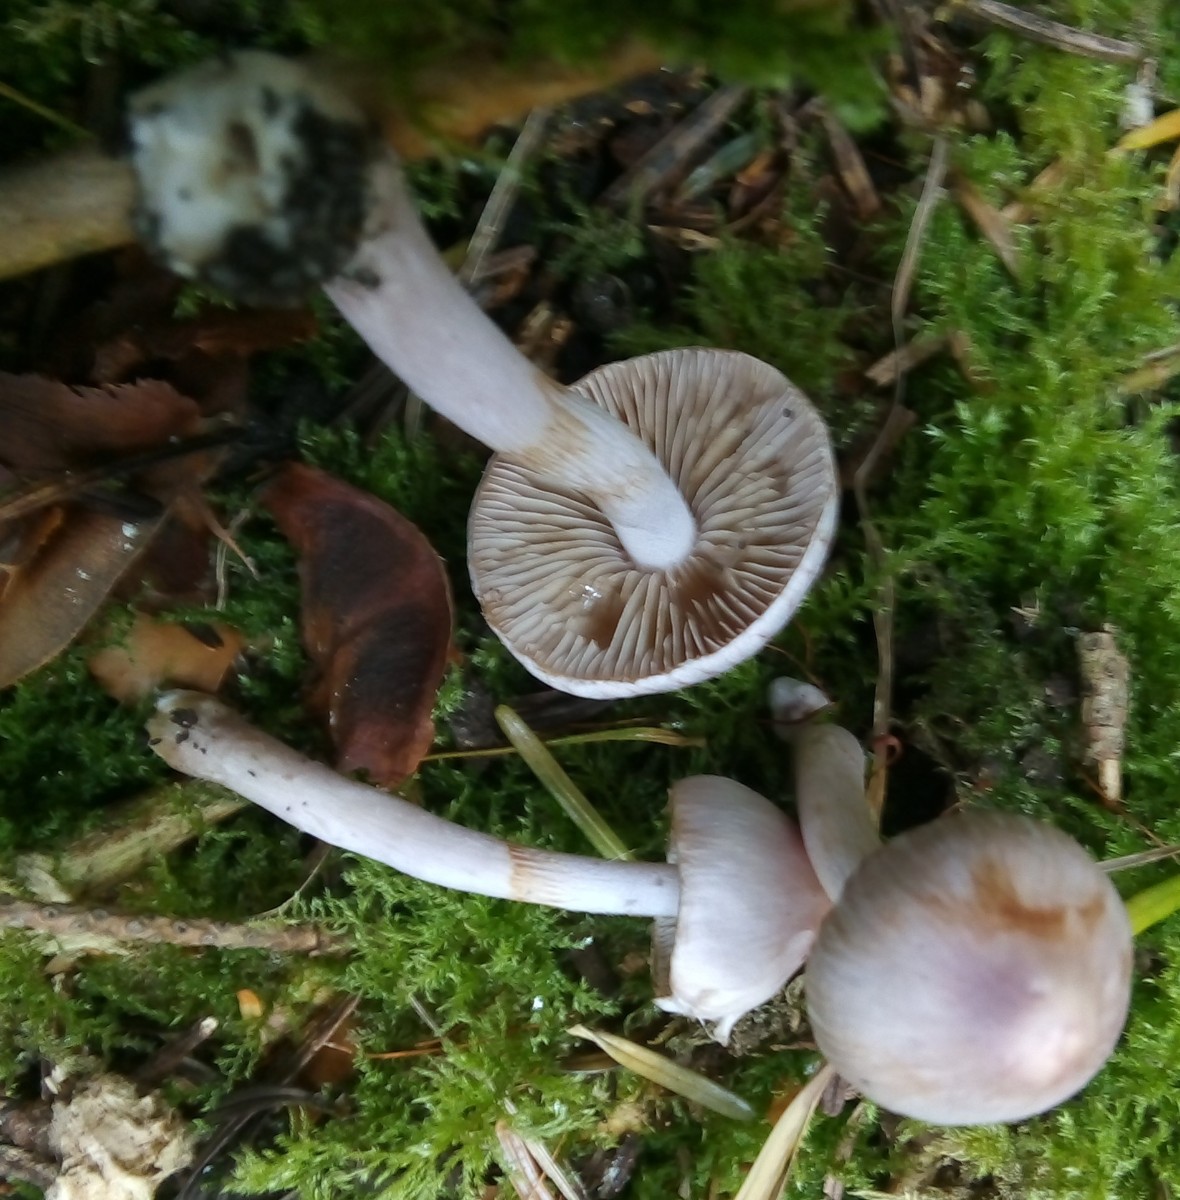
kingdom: Fungi
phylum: Basidiomycota
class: Agaricomycetes
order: Agaricales
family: Inocybaceae
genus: Inocybe
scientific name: Inocybe geophylla
